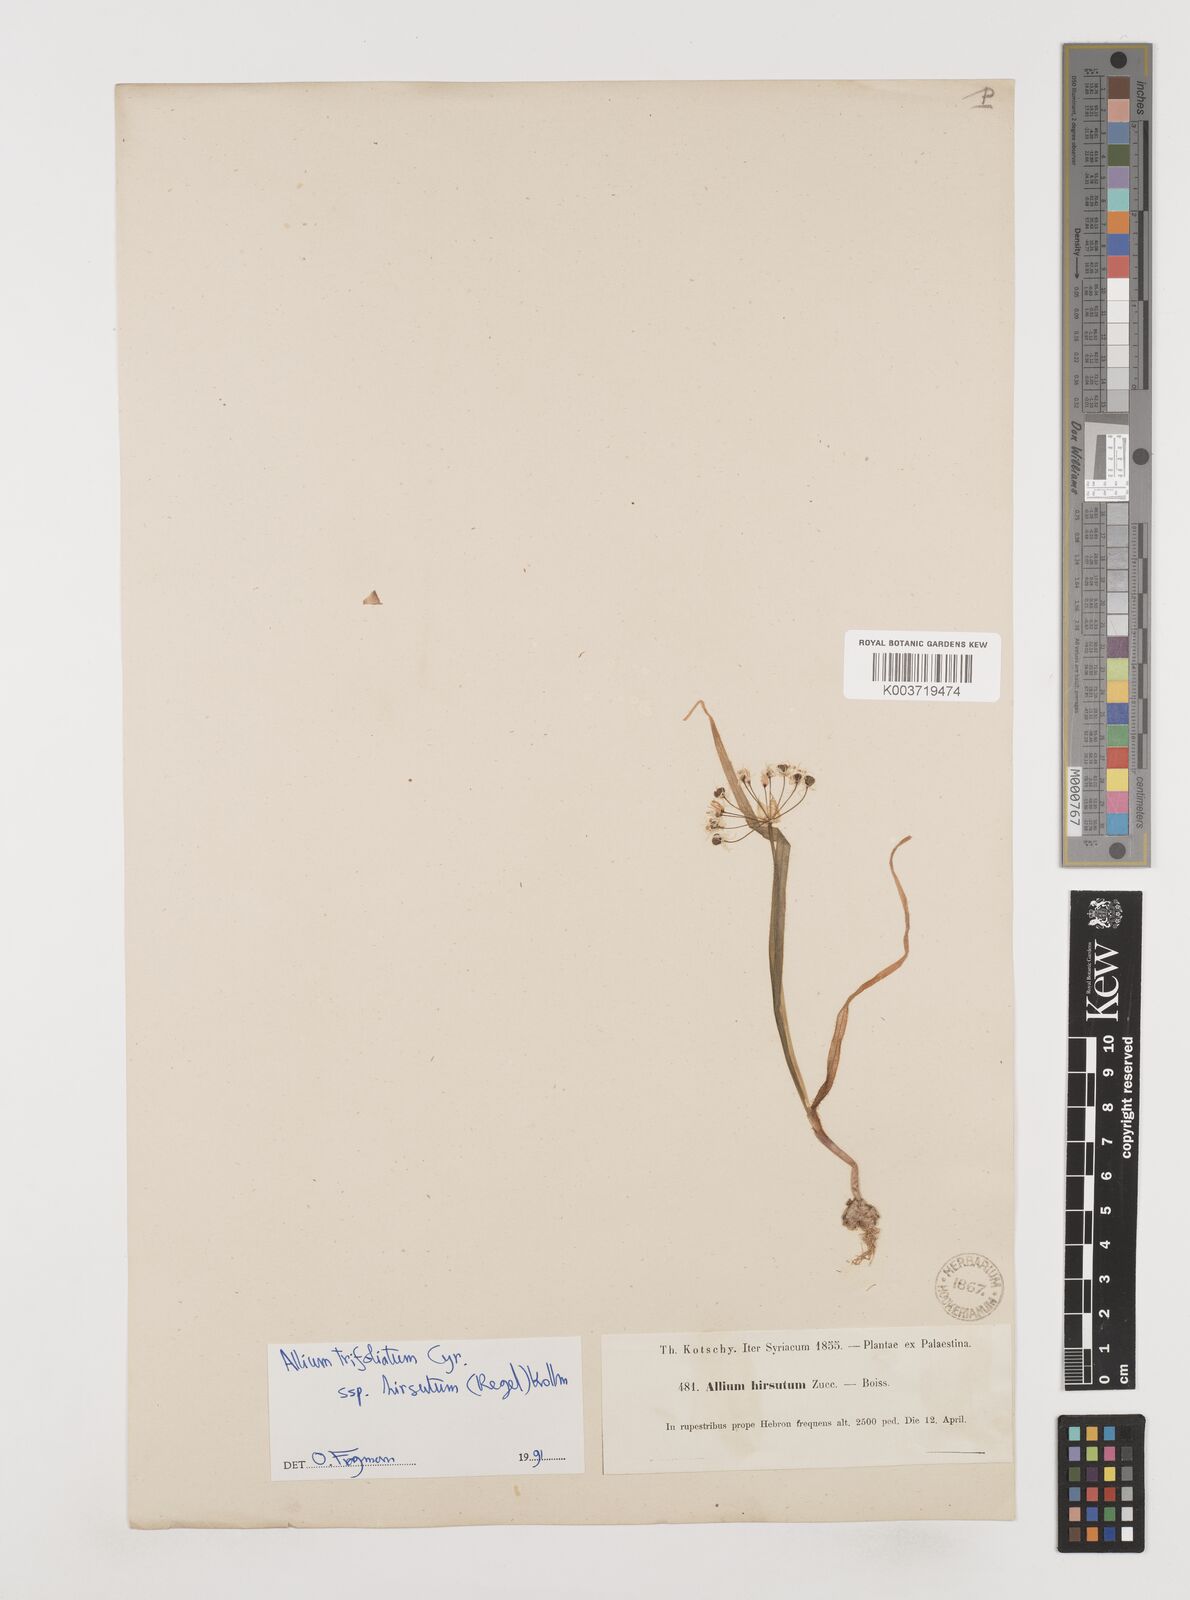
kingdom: Plantae
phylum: Tracheophyta
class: Liliopsida
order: Asparagales
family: Amaryllidaceae
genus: Allium
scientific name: Allium
